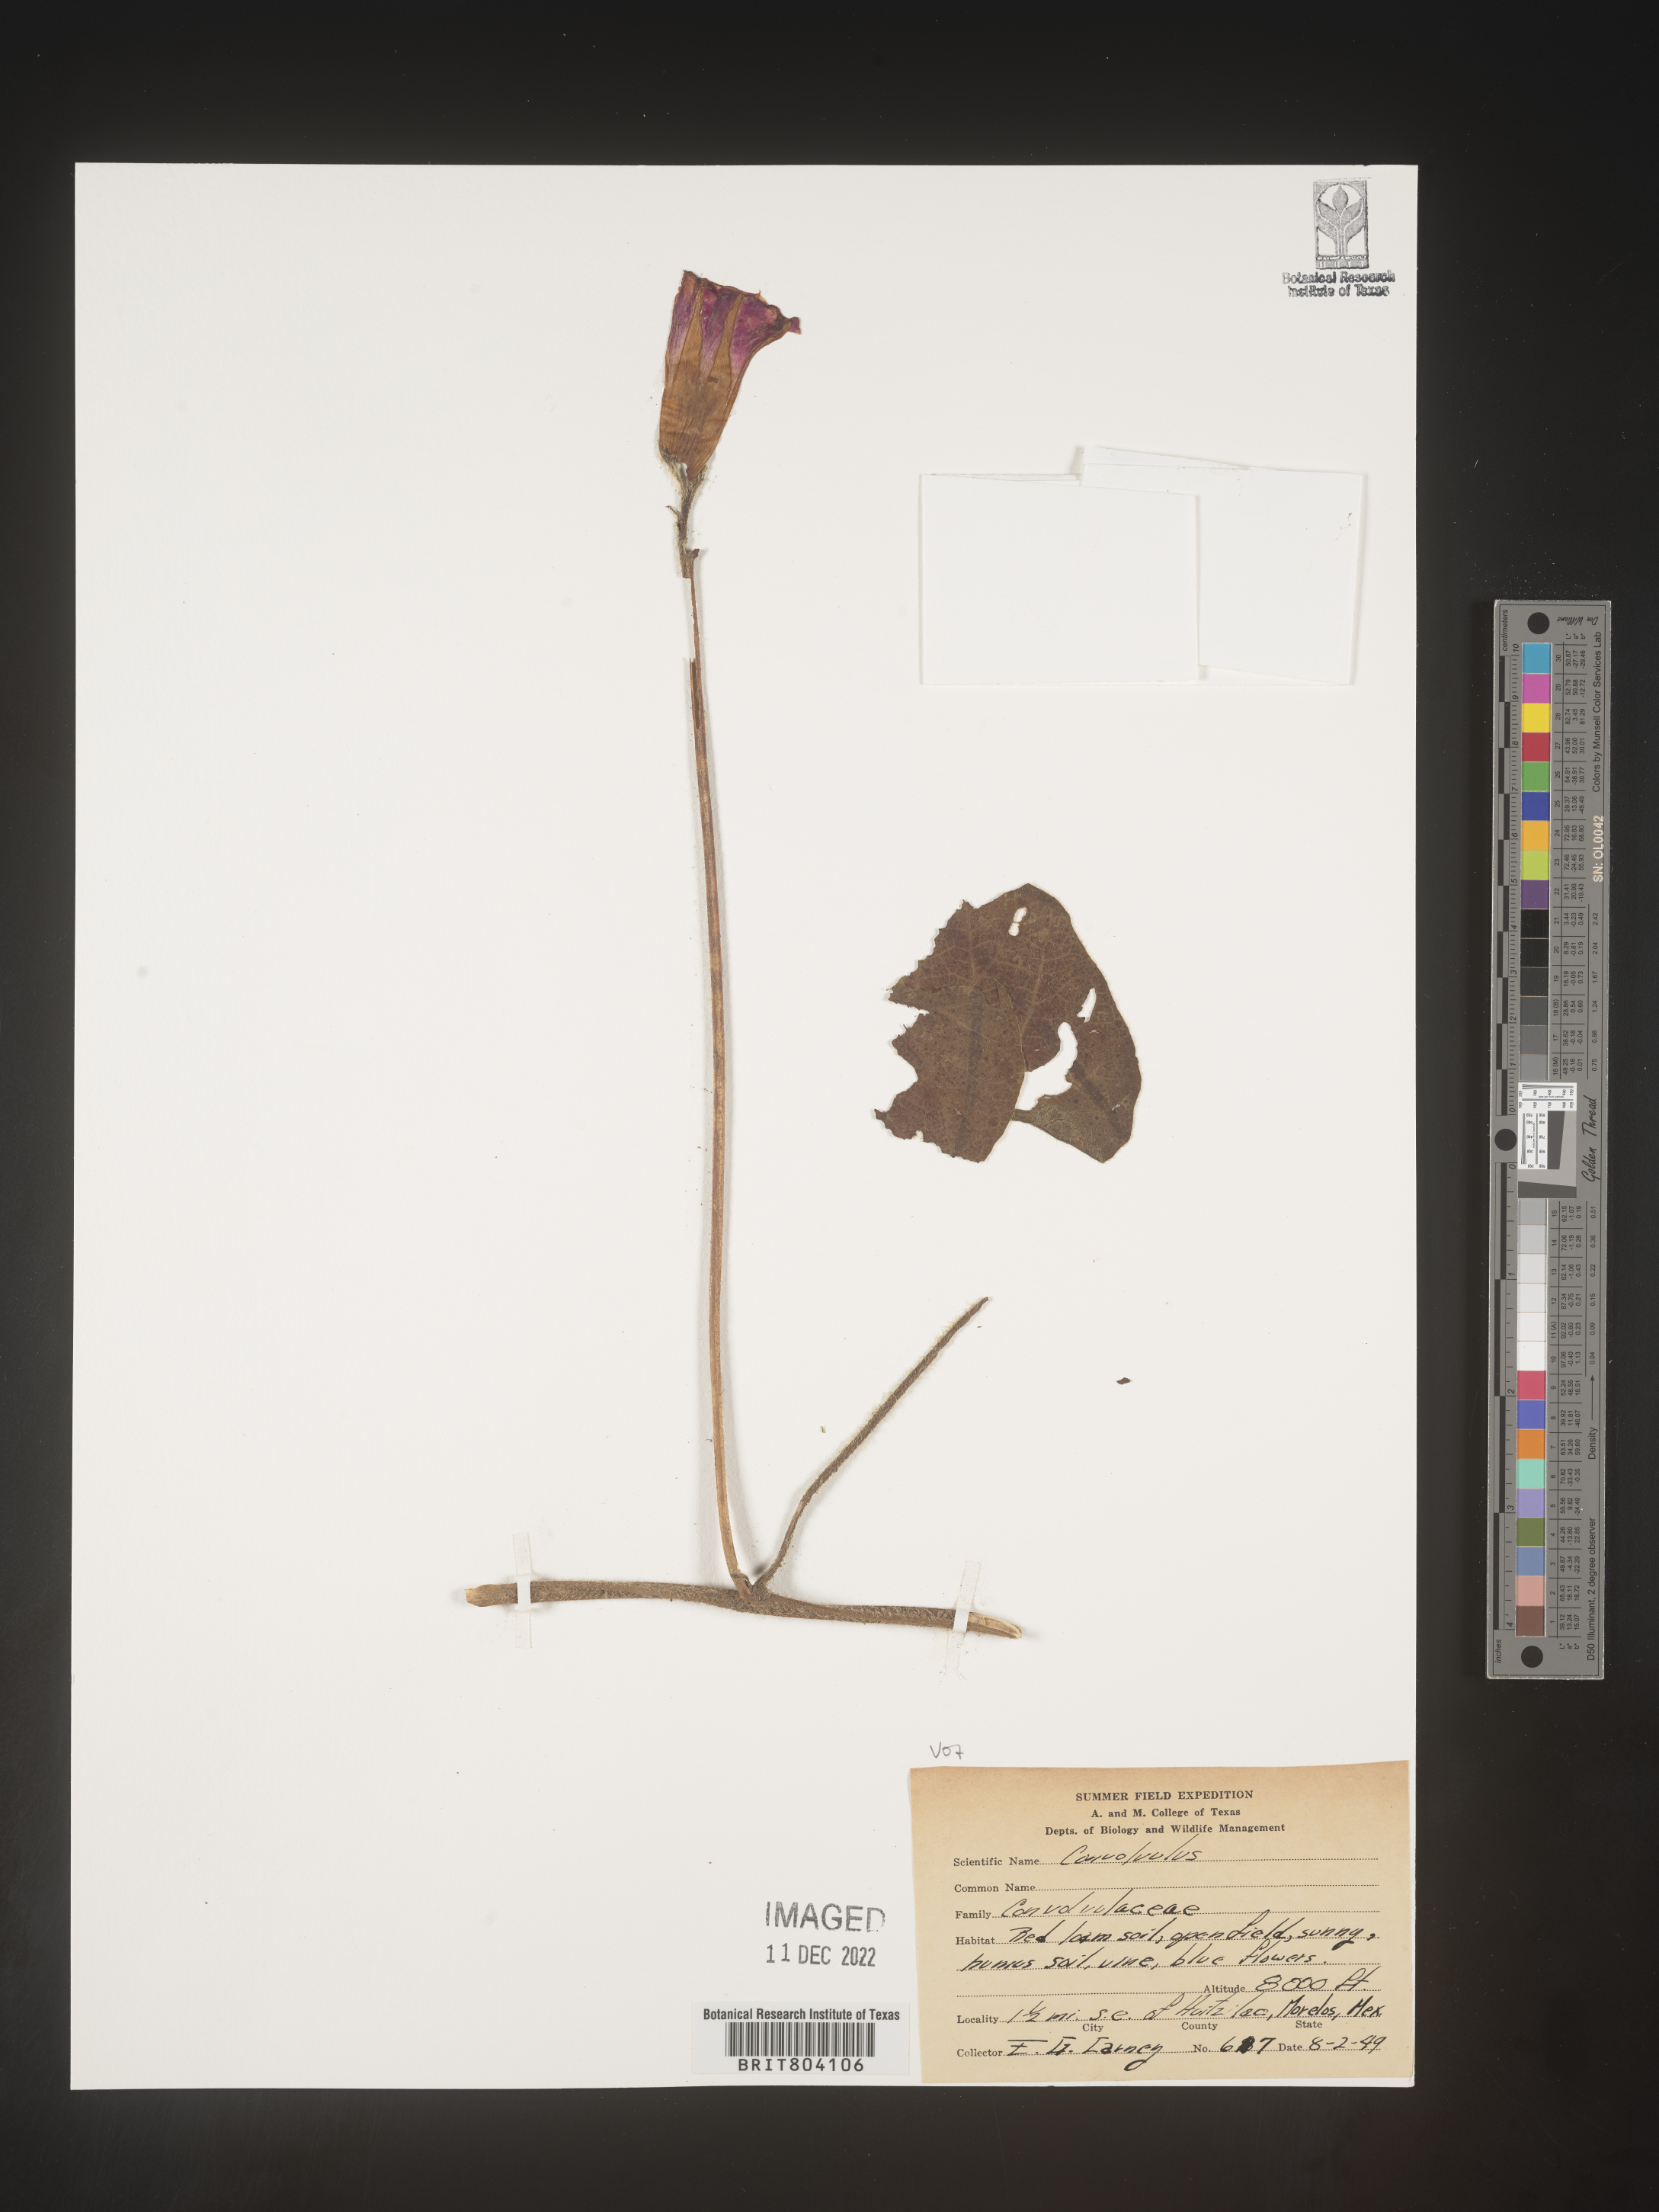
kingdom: Plantae
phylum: Tracheophyta
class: Magnoliopsida
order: Solanales
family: Convolvulaceae
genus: Convolvulus
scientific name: Convolvulus
